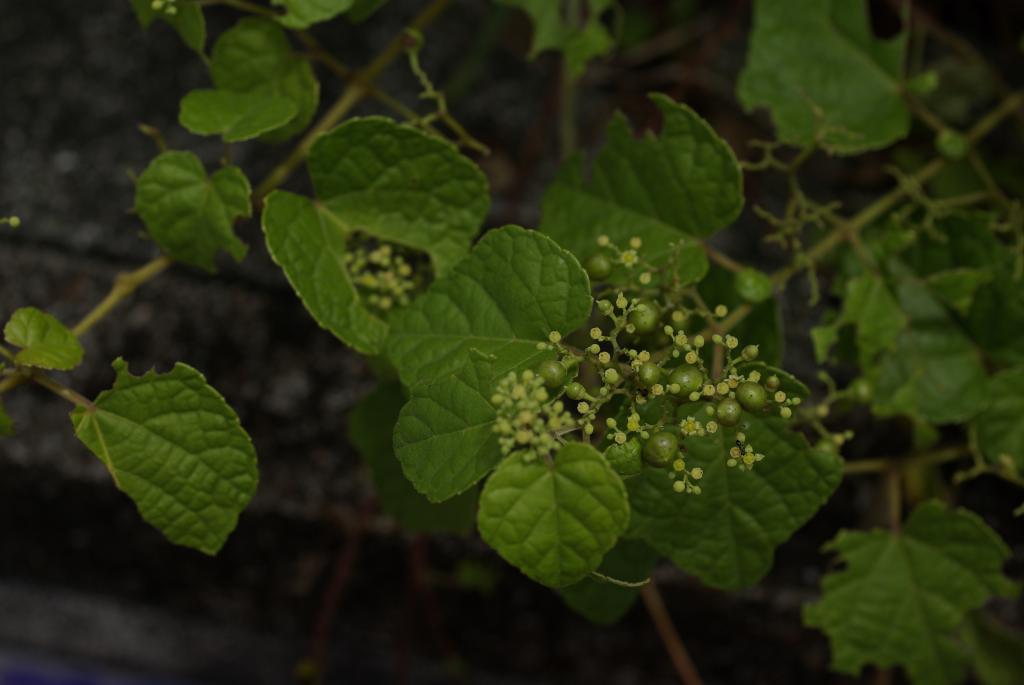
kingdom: Plantae
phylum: Tracheophyta
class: Magnoliopsida
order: Vitales
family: Vitaceae
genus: Ampelopsis
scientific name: Ampelopsis glandulosa
